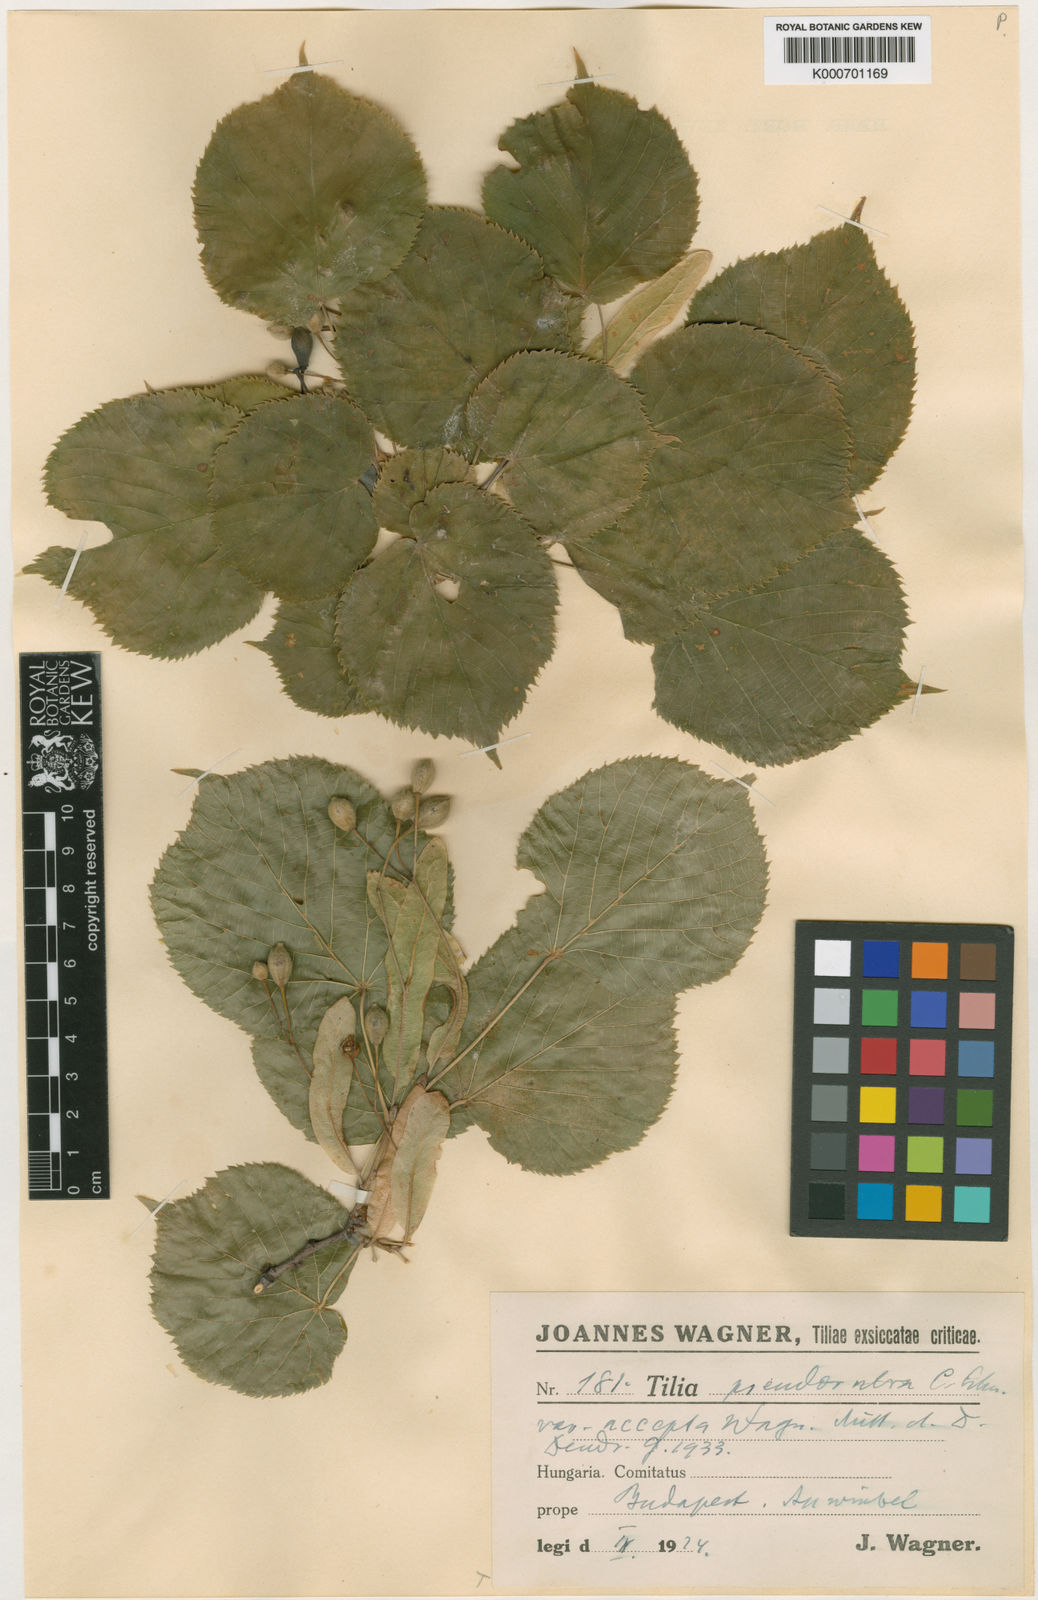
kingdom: Plantae
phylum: Tracheophyta
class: Magnoliopsida
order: Malvales
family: Malvaceae
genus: Tilia
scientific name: Tilia platyphyllos
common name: Large-leaved lime
